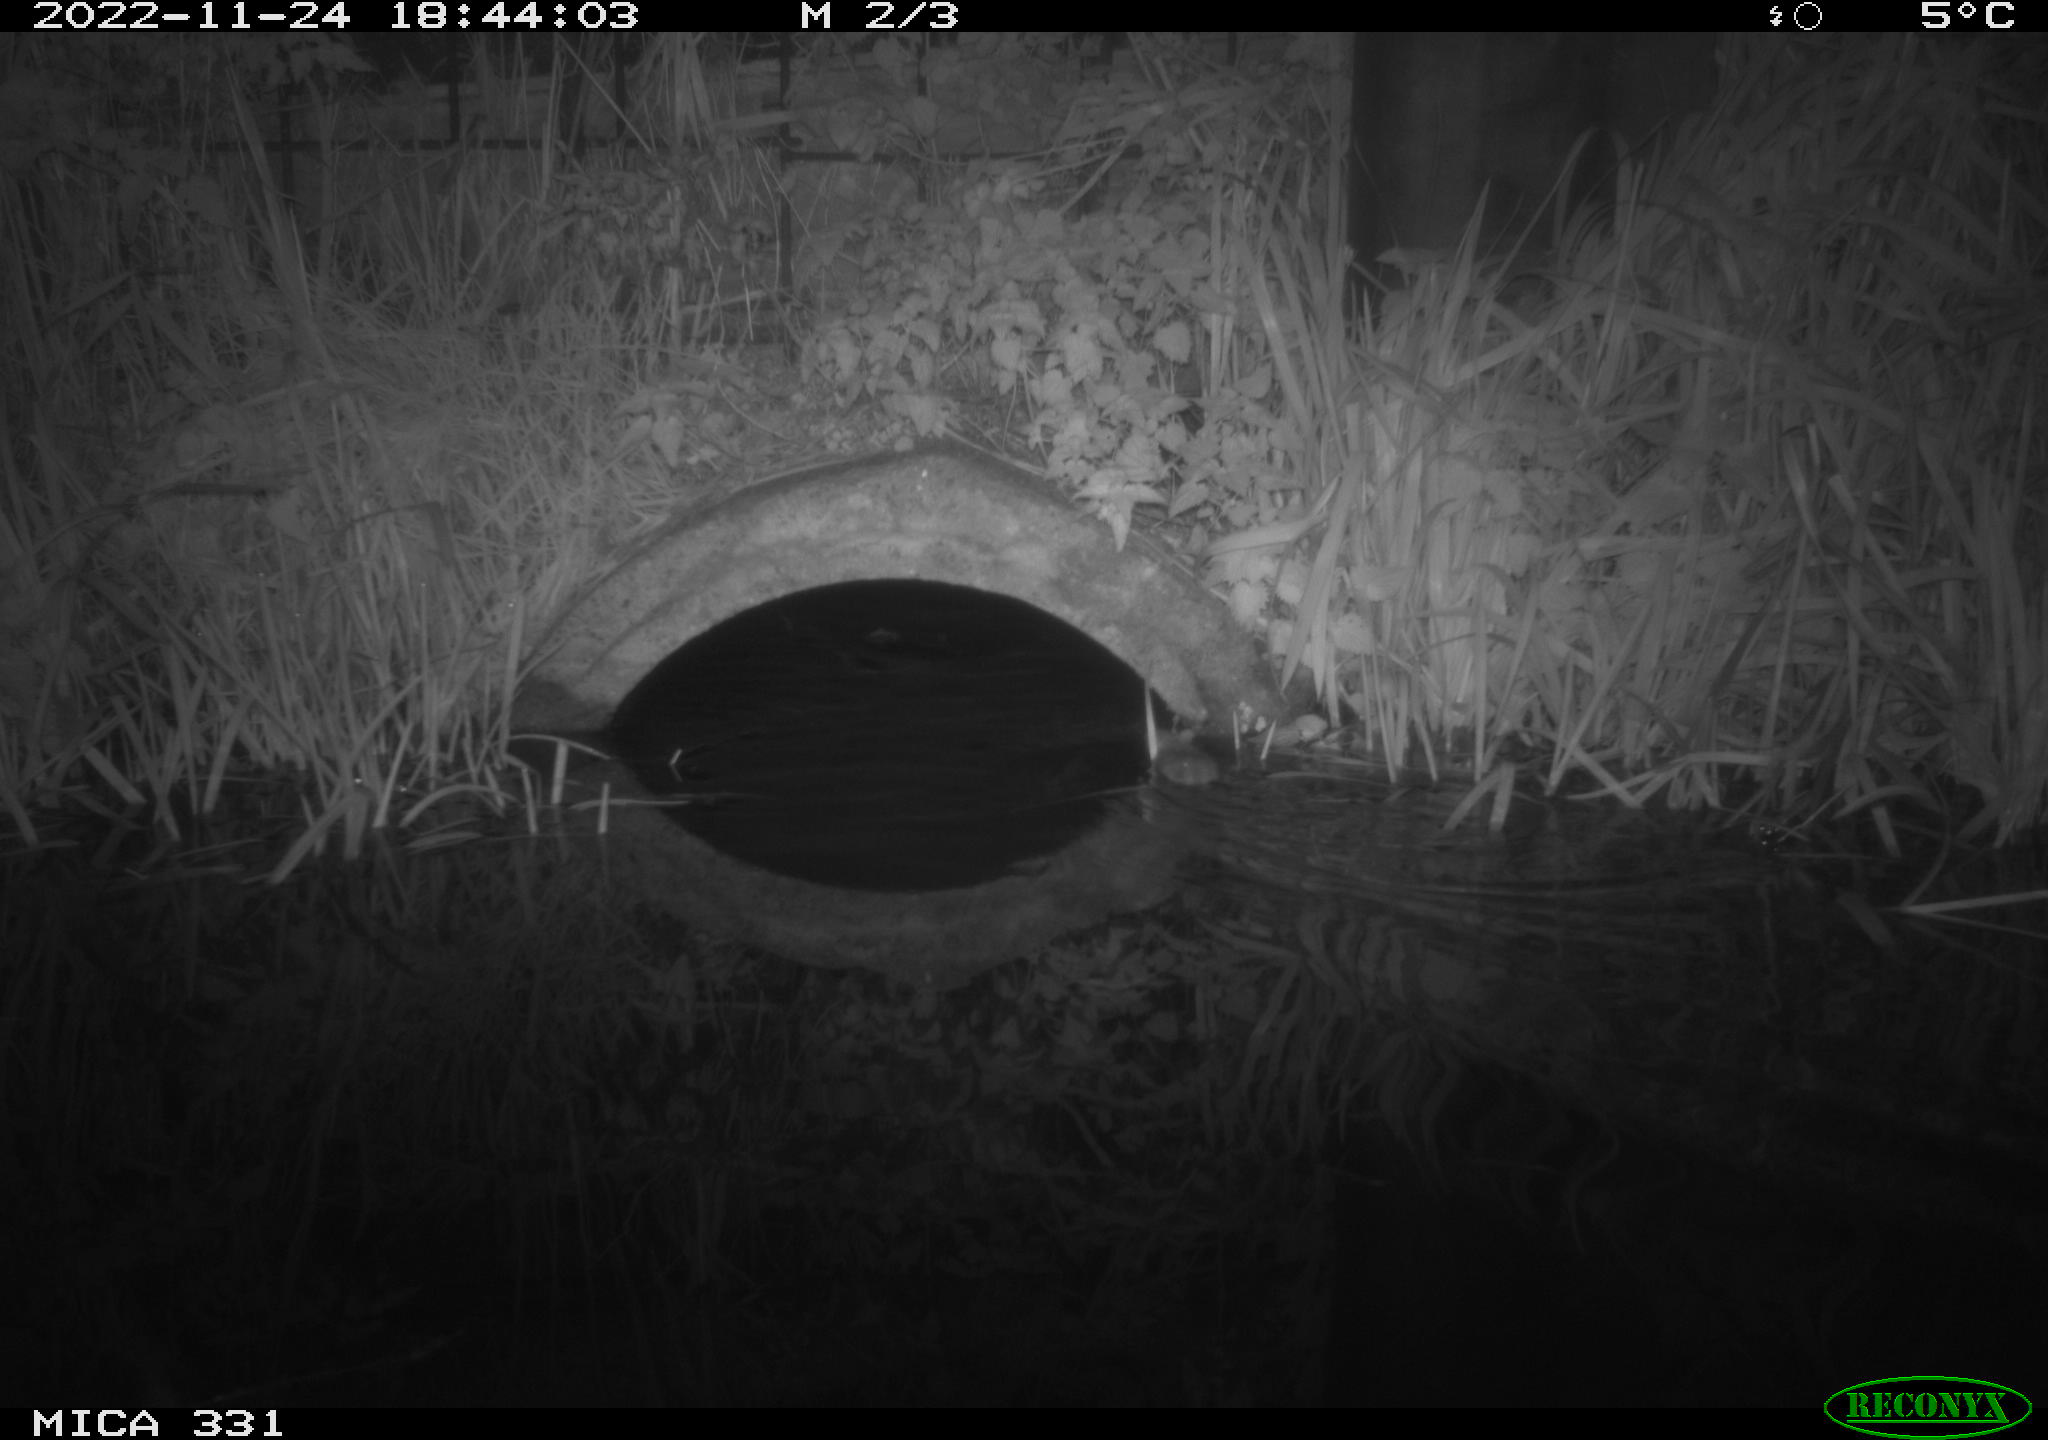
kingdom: Animalia
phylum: Chordata
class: Mammalia
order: Rodentia
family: Muridae
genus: Rattus
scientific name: Rattus norvegicus
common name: Brown rat
